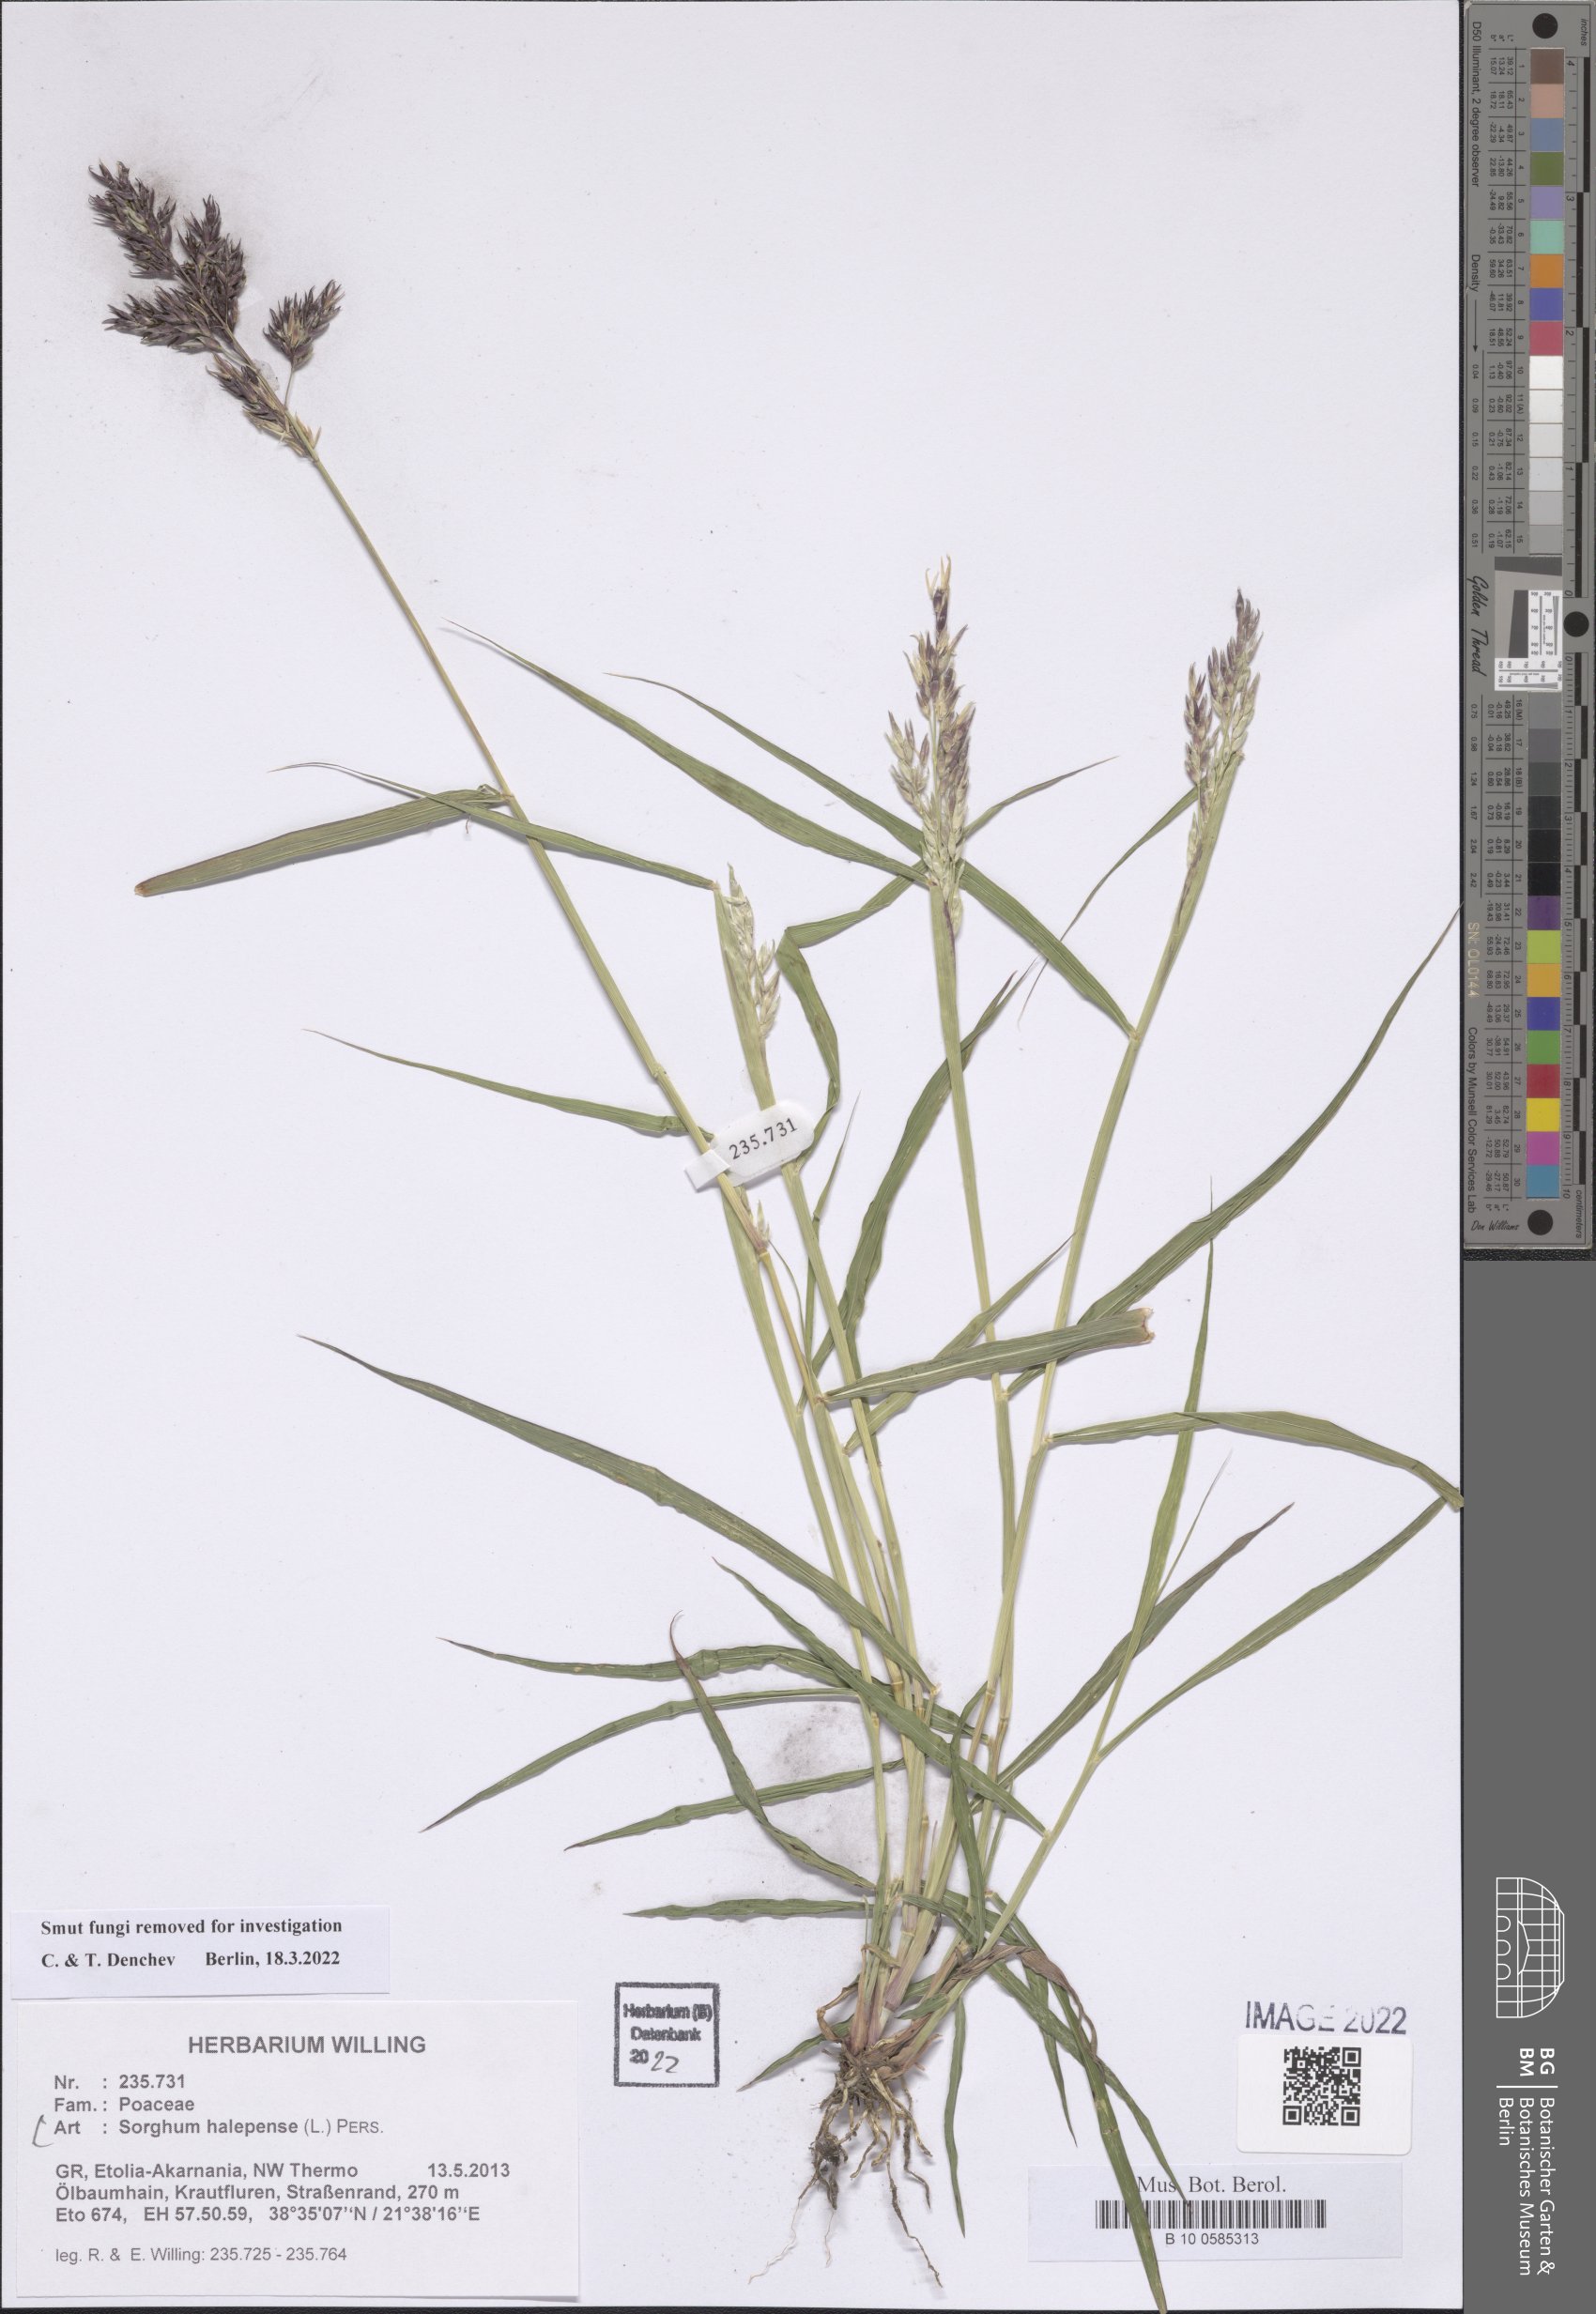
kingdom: Plantae
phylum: Tracheophyta
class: Liliopsida
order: Poales
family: Poaceae
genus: Sorghum
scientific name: Sorghum halepense
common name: Johnson-grass
